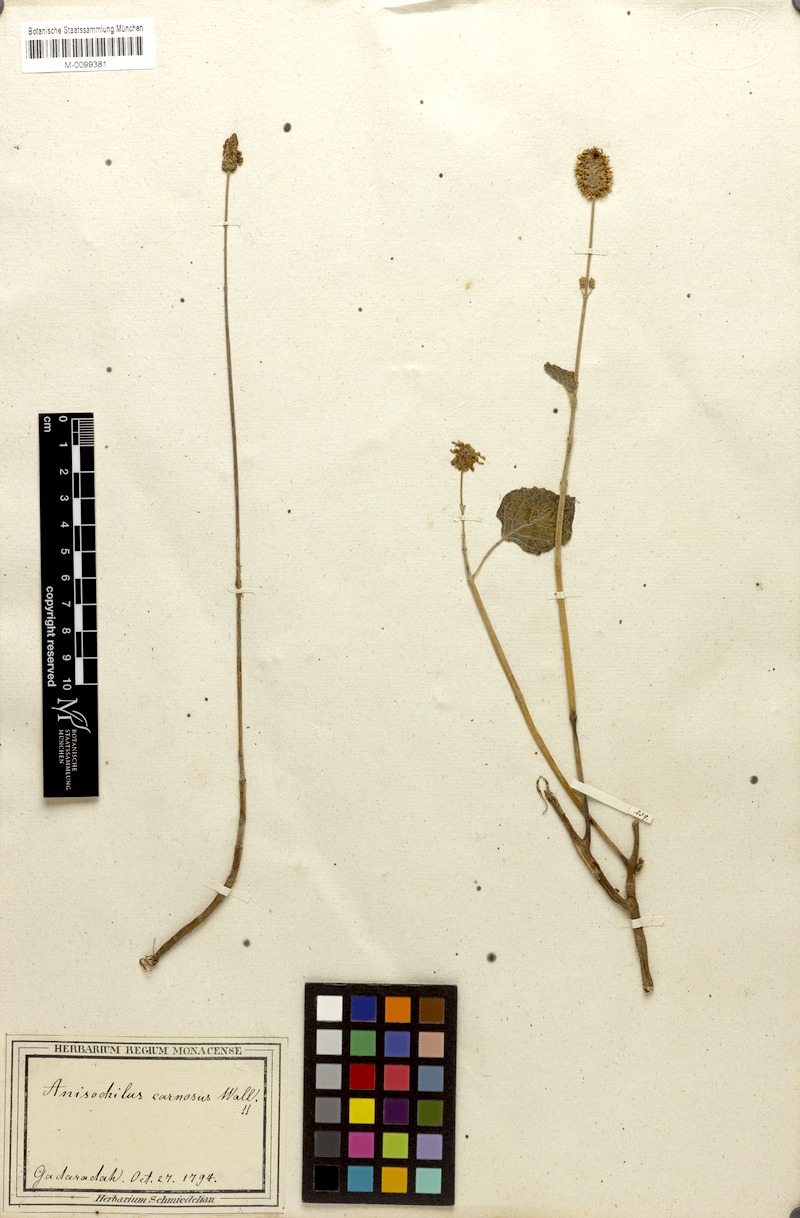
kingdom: Plantae
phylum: Tracheophyta
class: Magnoliopsida
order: Lamiales
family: Lamiaceae
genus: Coleus
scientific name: Coleus strobilifer
